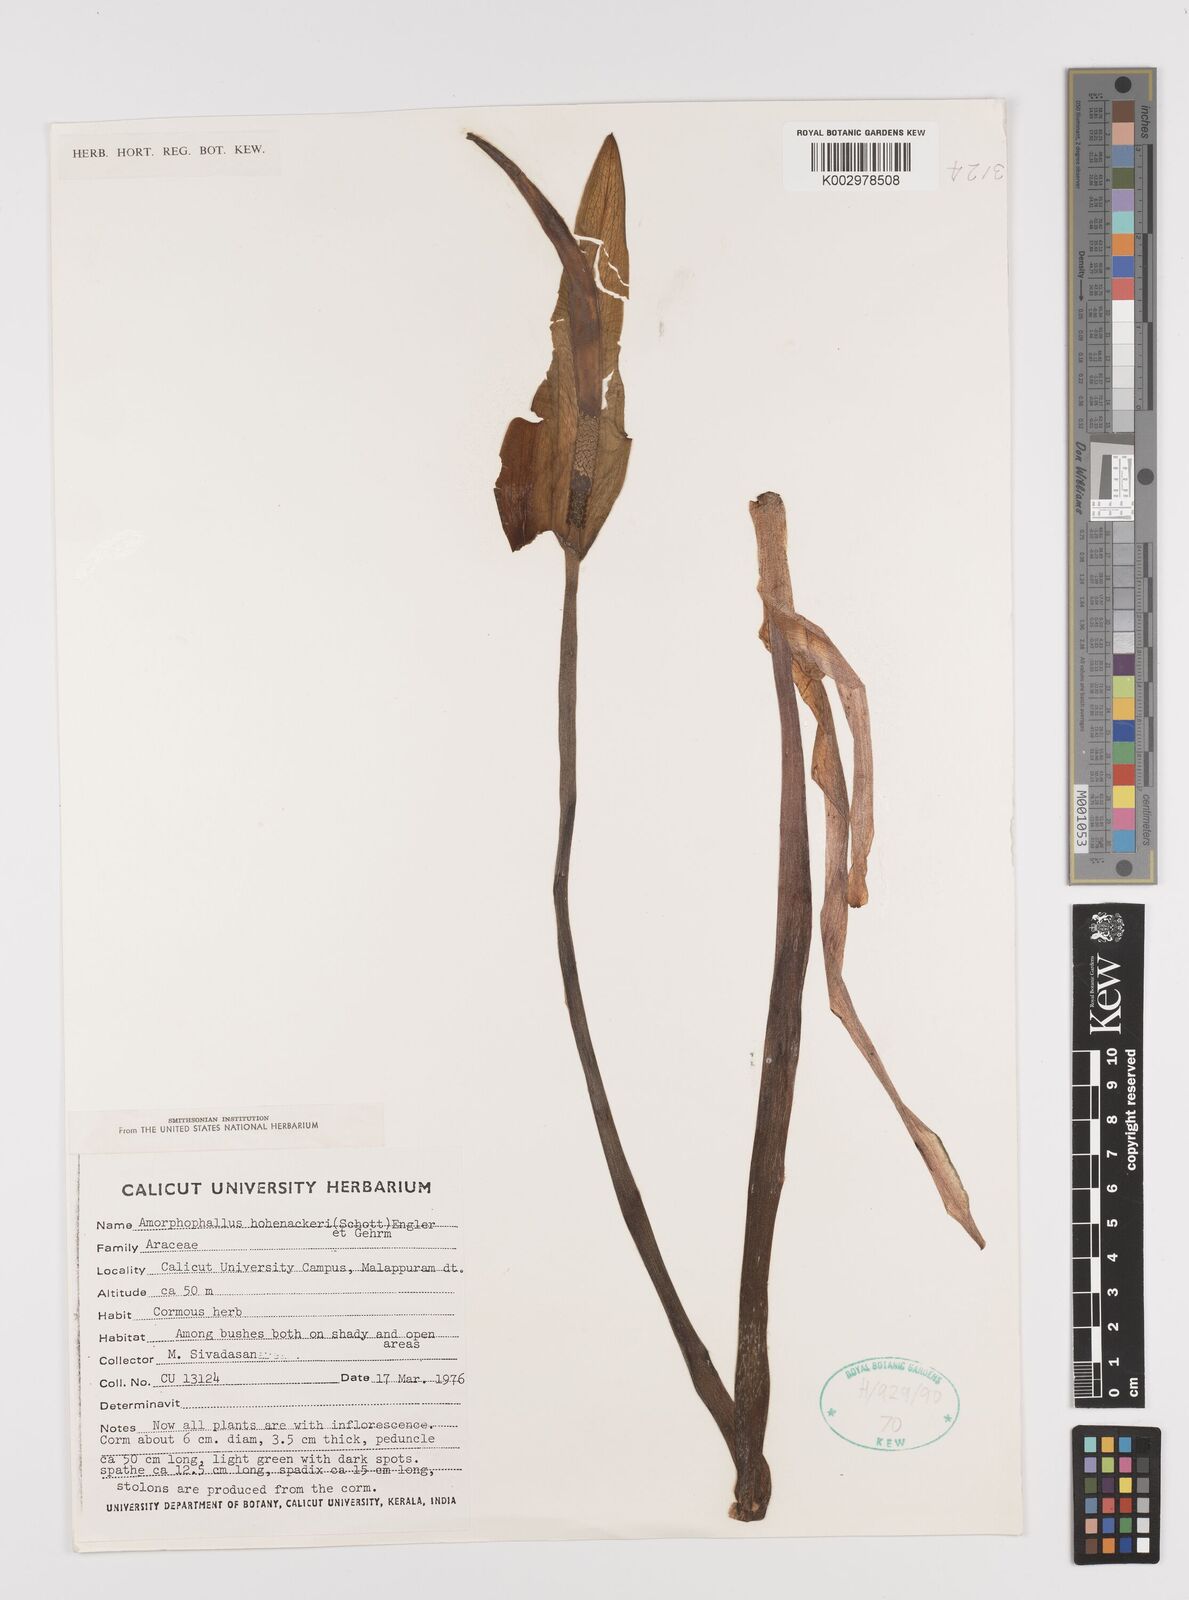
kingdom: Plantae
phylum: Tracheophyta
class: Liliopsida
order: Alismatales
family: Araceae
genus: Amorphophallus
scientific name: Amorphophallus hohenackeri
